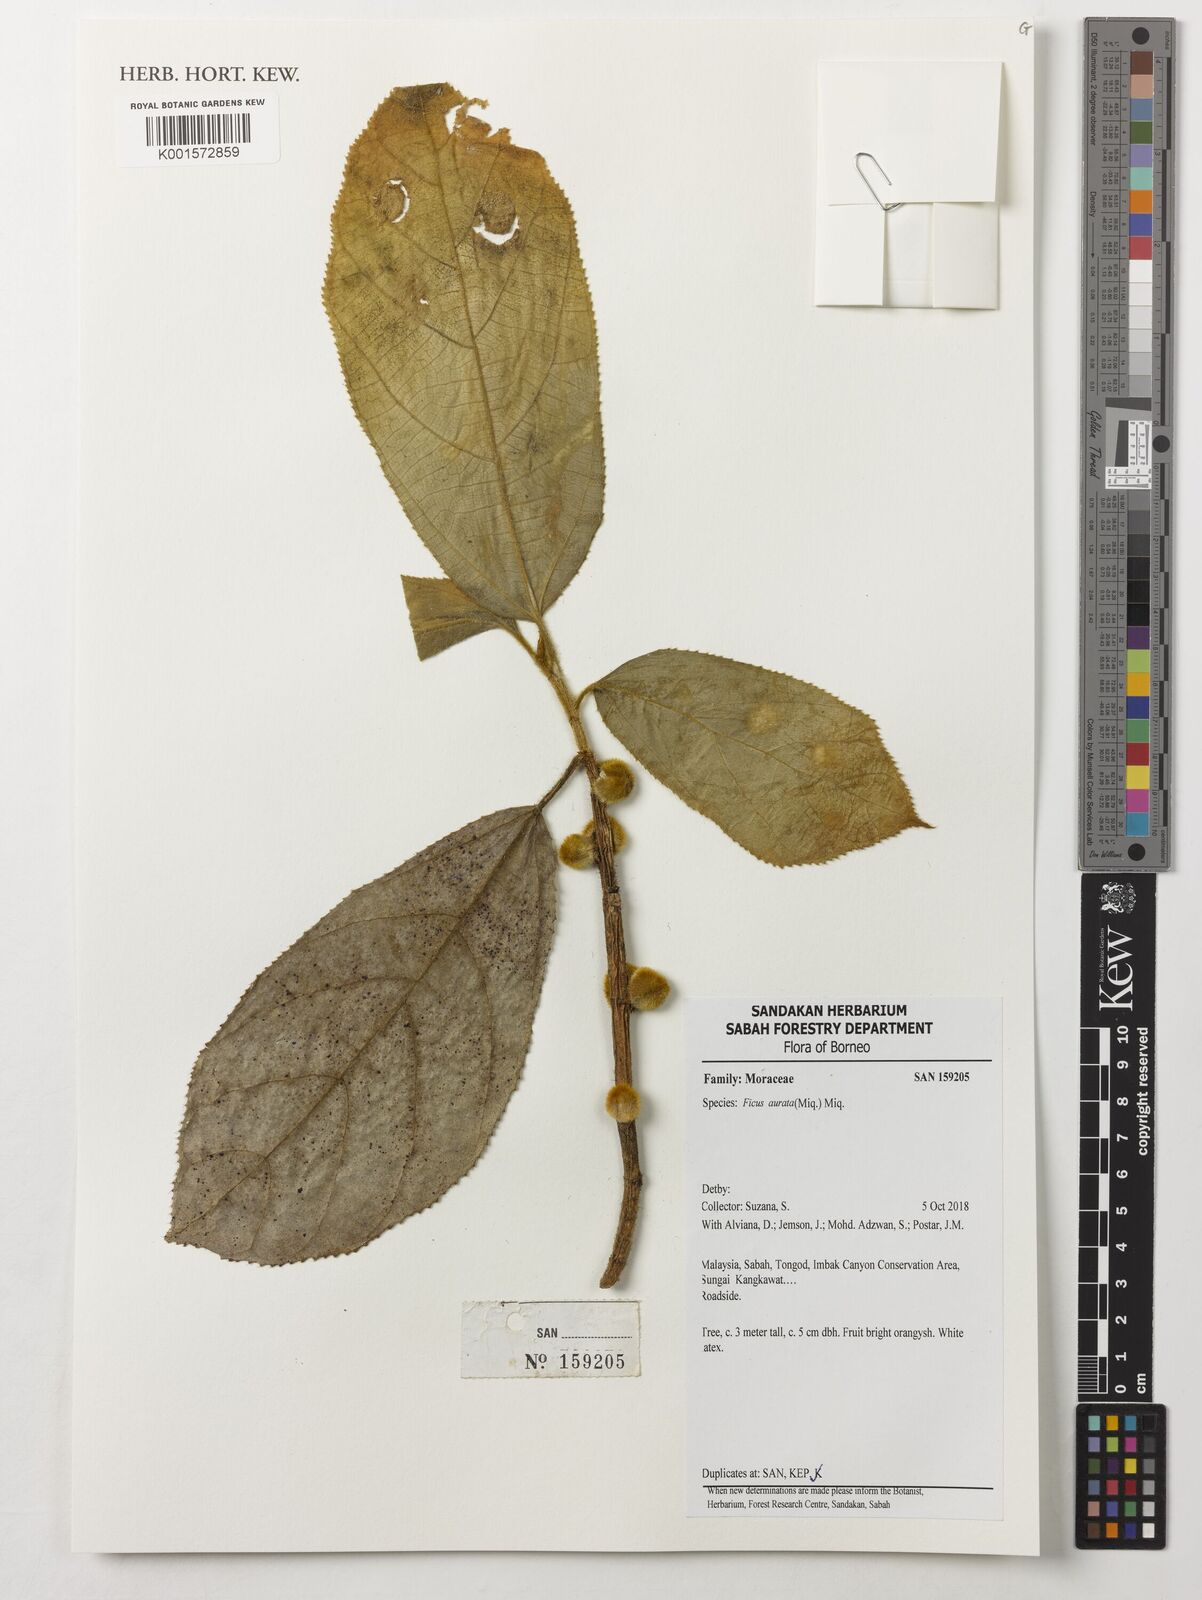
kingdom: Plantae
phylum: Tracheophyta
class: Magnoliopsida
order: Rosales
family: Moraceae
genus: Ficus
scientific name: Ficus aurata
